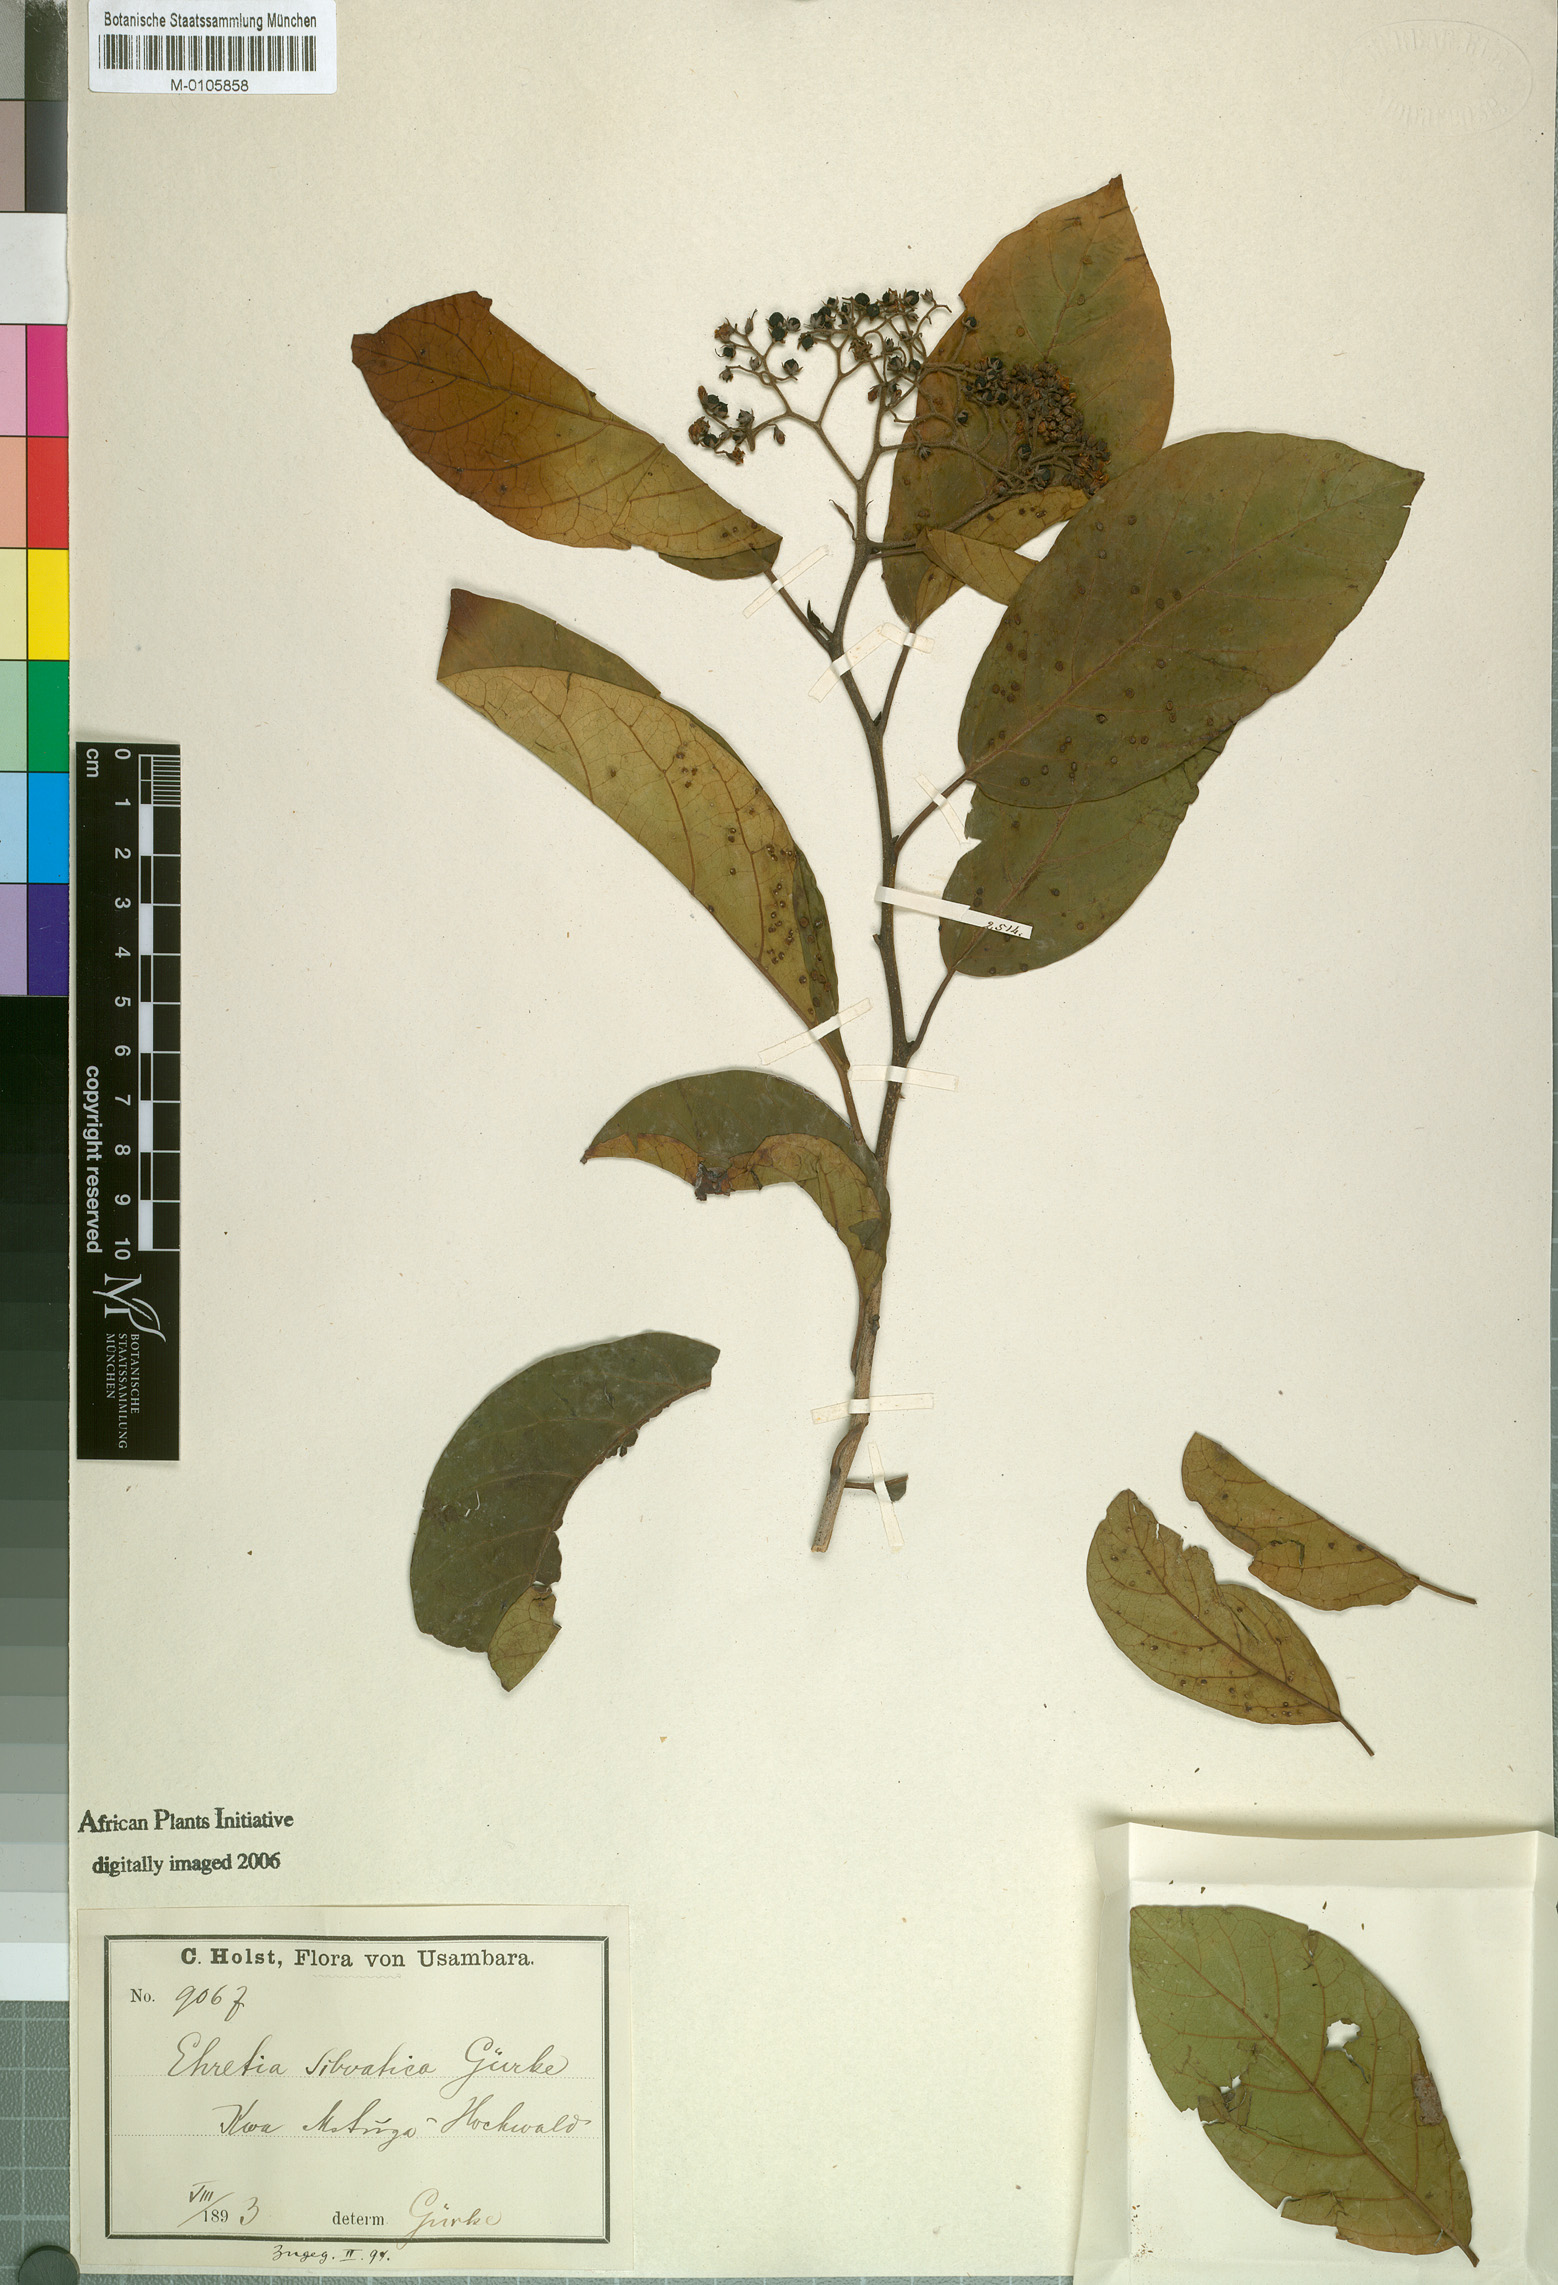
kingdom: Plantae
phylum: Tracheophyta
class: Magnoliopsida
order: Boraginales
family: Ehretiaceae
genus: Ehretia
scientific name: Ehretia cymosa
